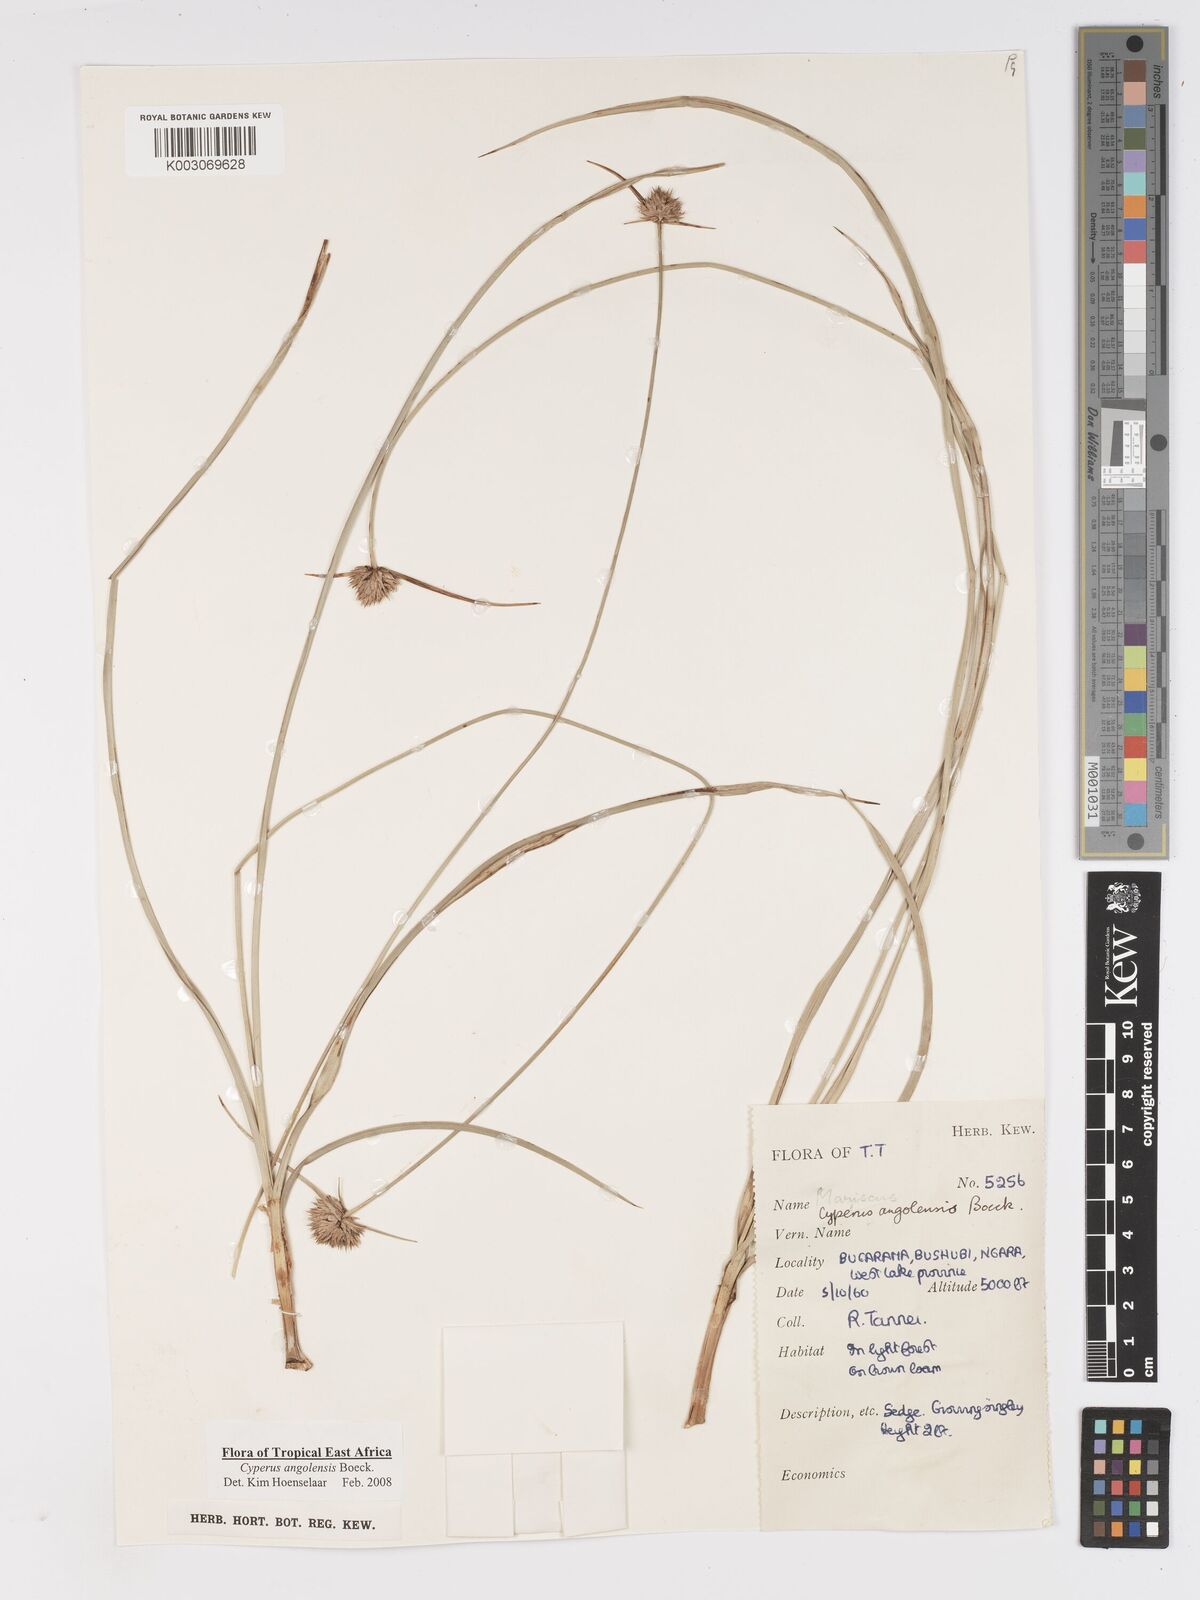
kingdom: Plantae
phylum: Tracheophyta
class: Liliopsida
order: Poales
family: Cyperaceae
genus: Cyperus
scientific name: Cyperus angolensis
